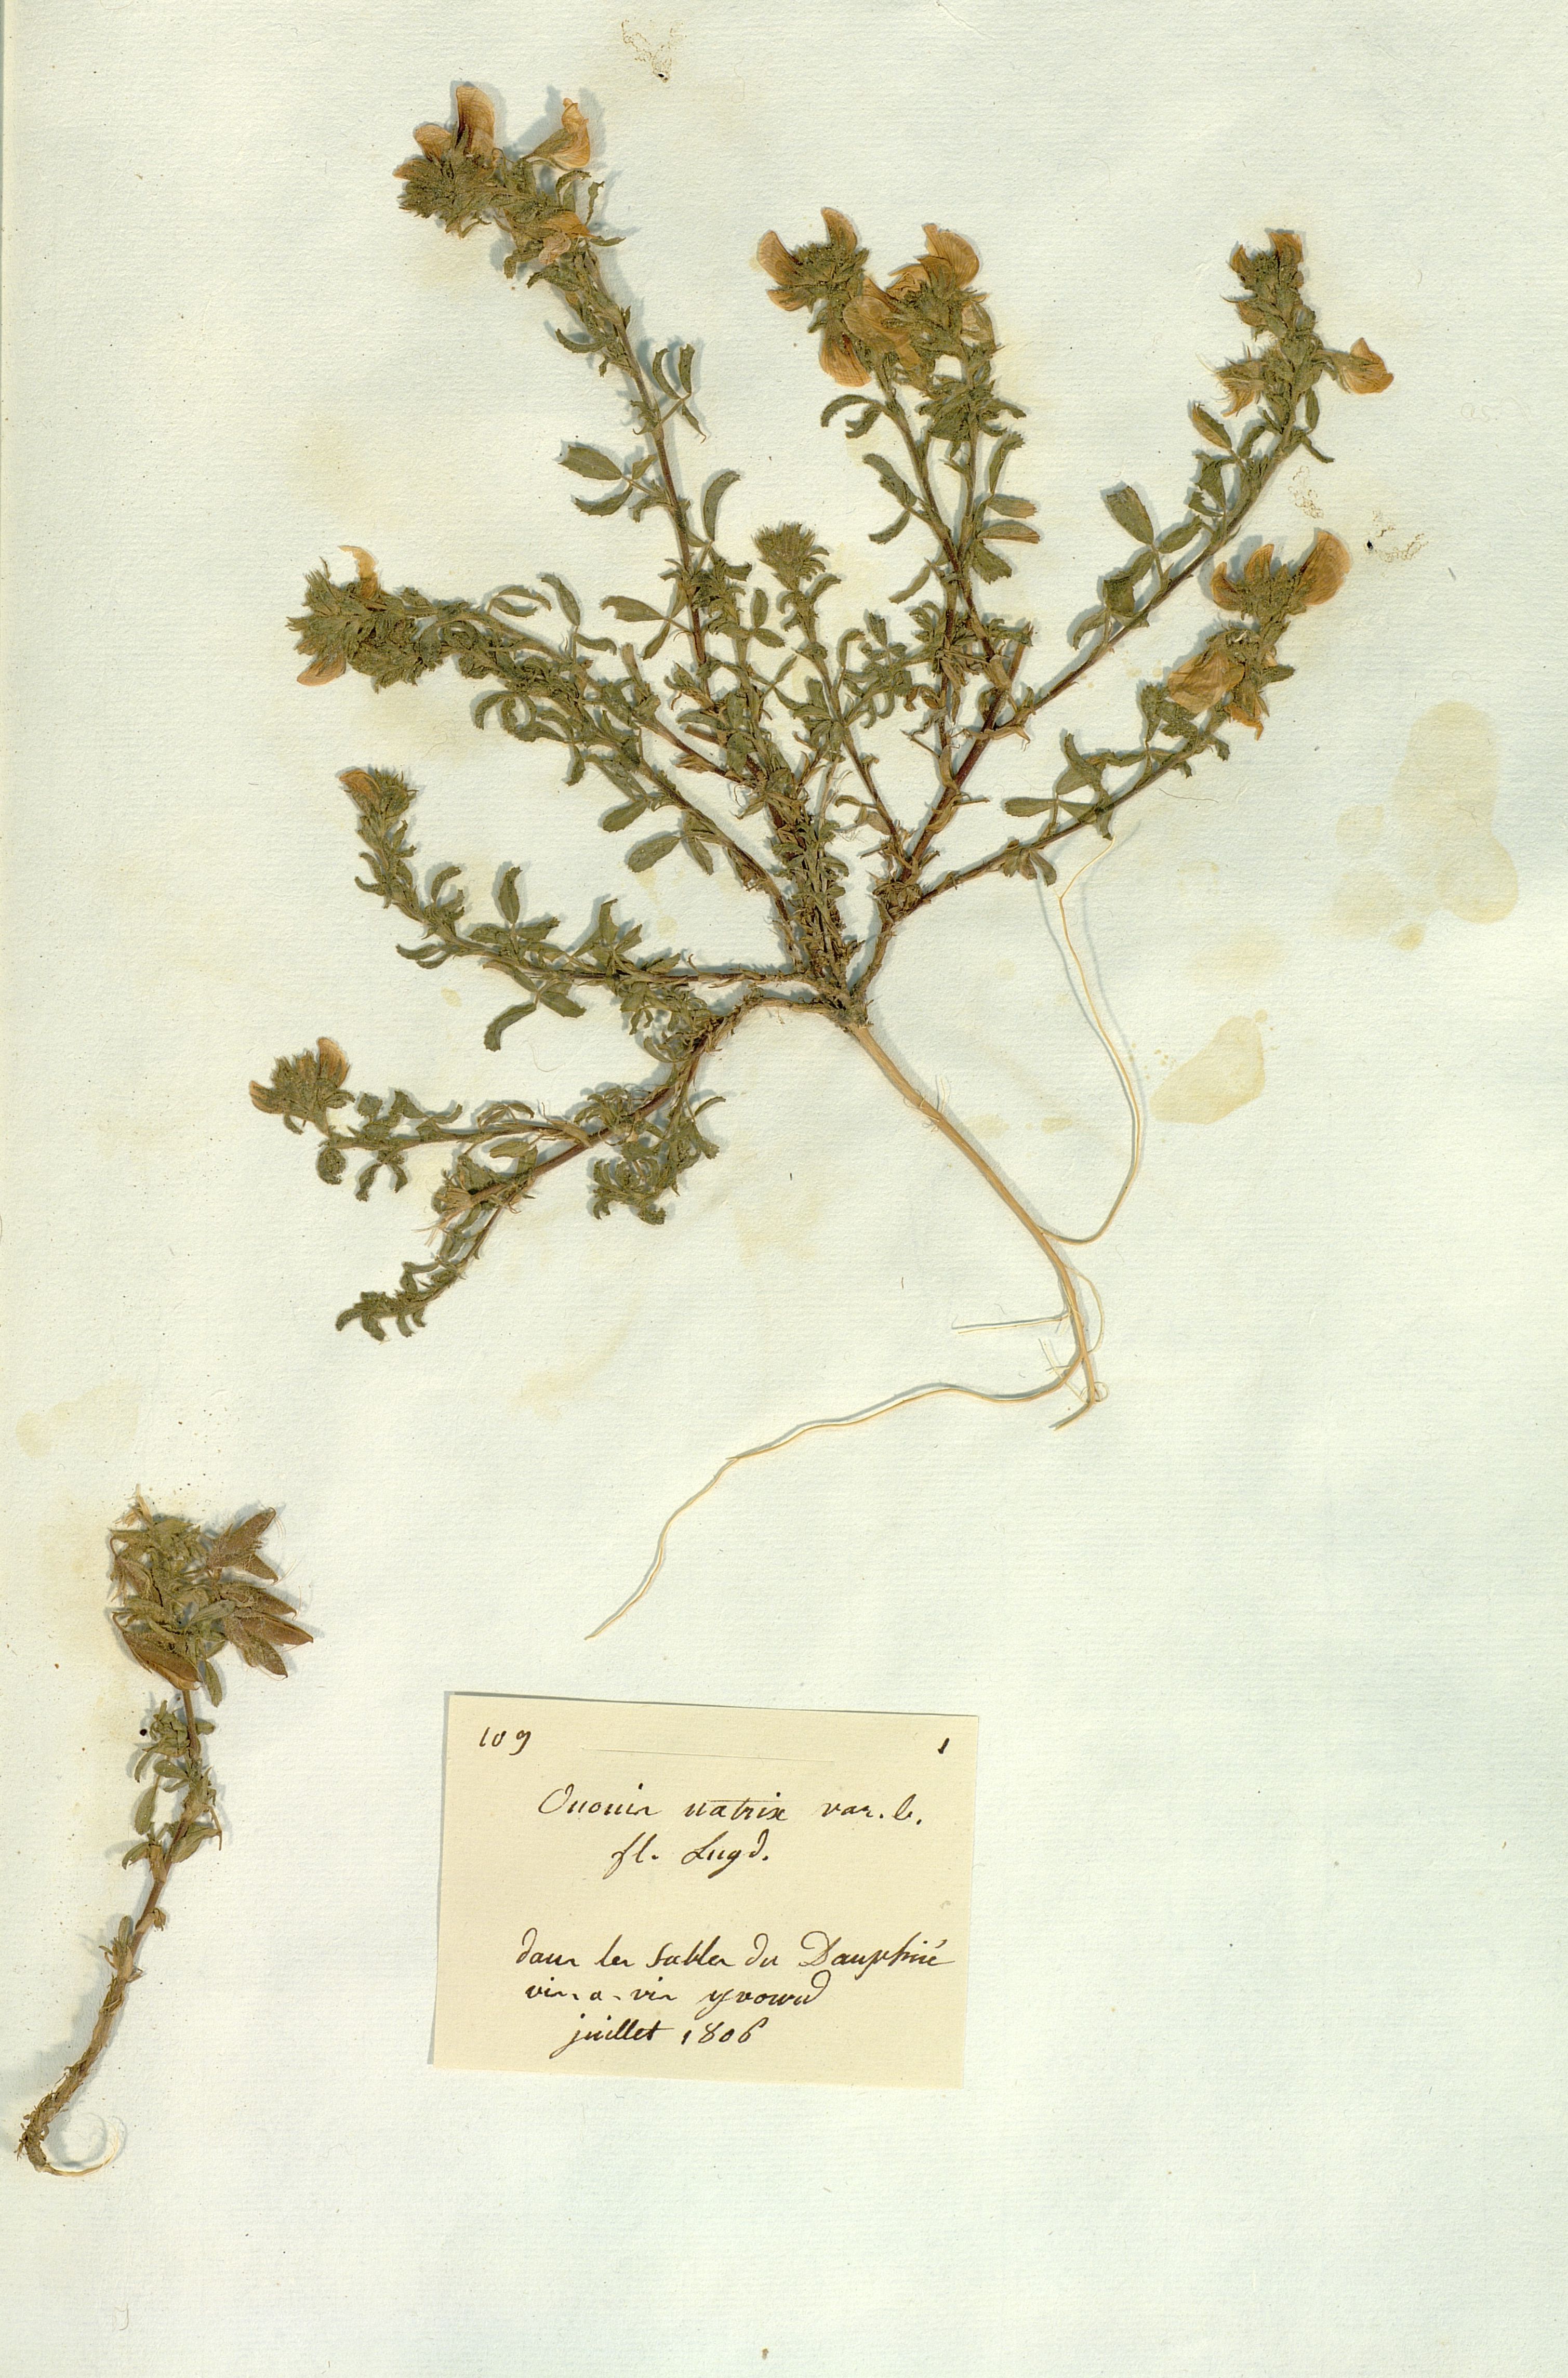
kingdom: Plantae
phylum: Tracheophyta
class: Magnoliopsida
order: Fabales
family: Fabaceae
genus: Ononis
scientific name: Ononis natrix
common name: Yellow restharrow
